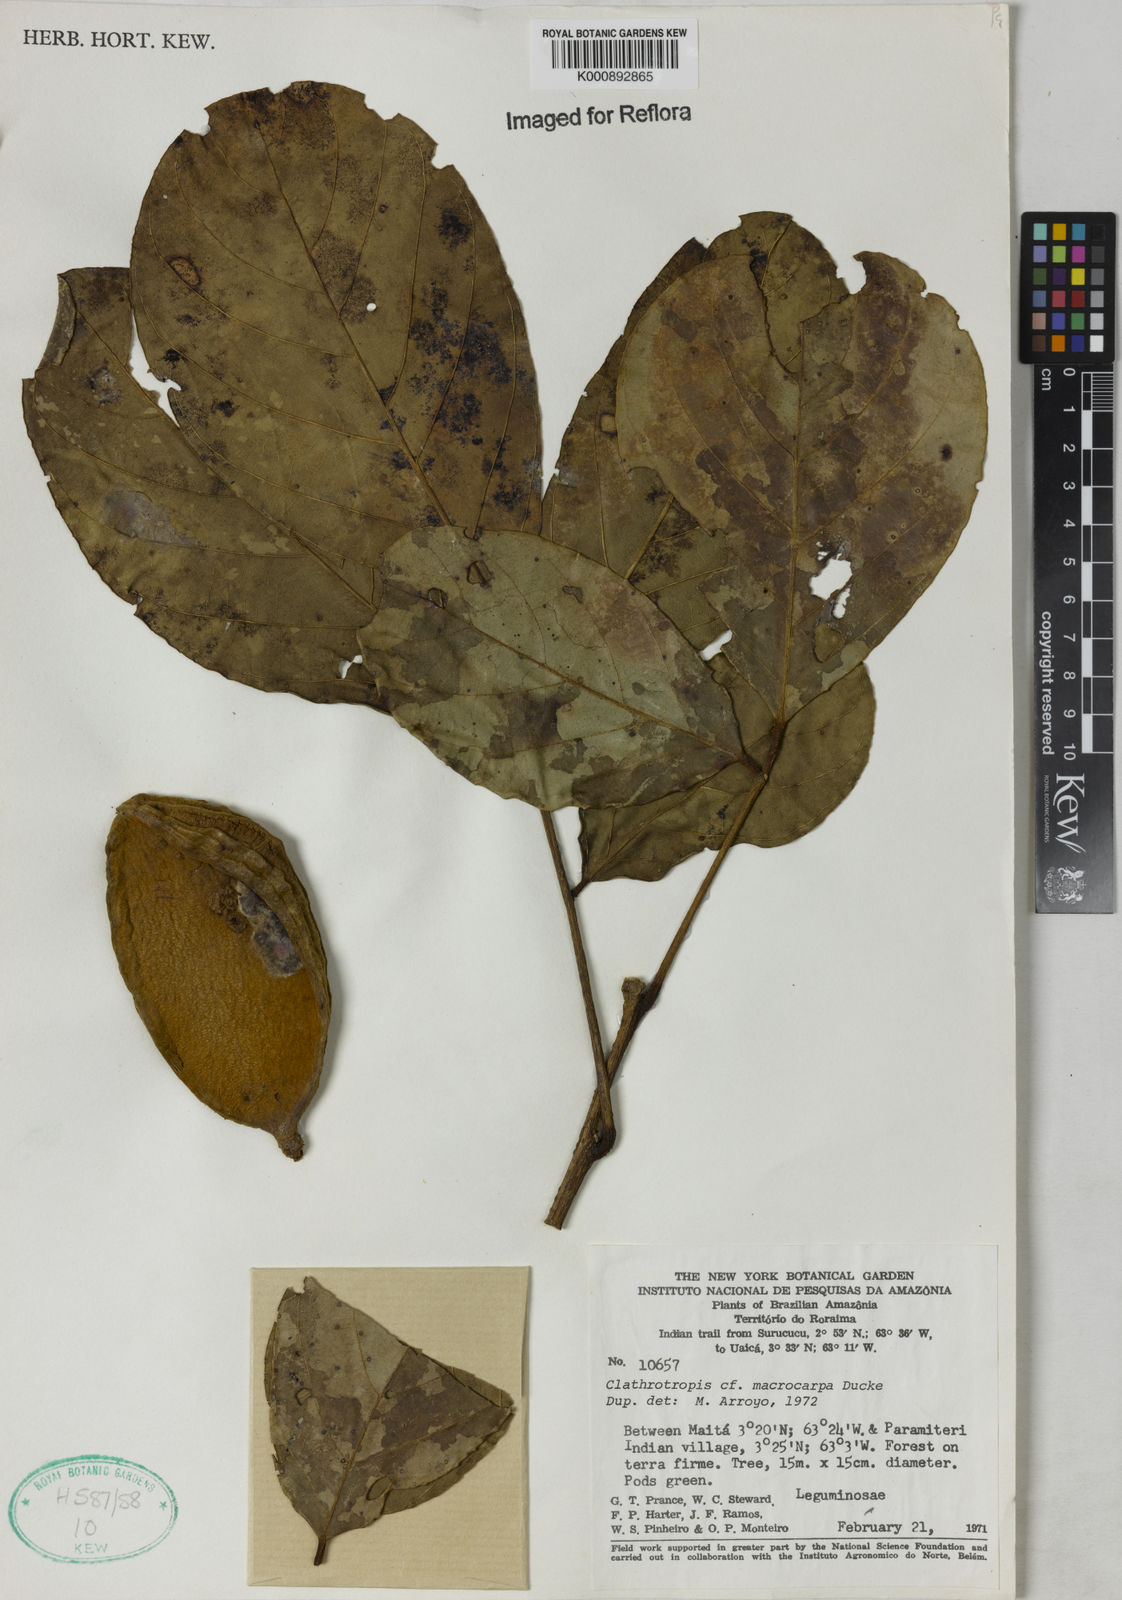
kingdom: Plantae
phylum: Tracheophyta
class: Magnoliopsida
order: Fabales
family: Fabaceae
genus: Clathrotropis
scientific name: Clathrotropis macrocarpa
